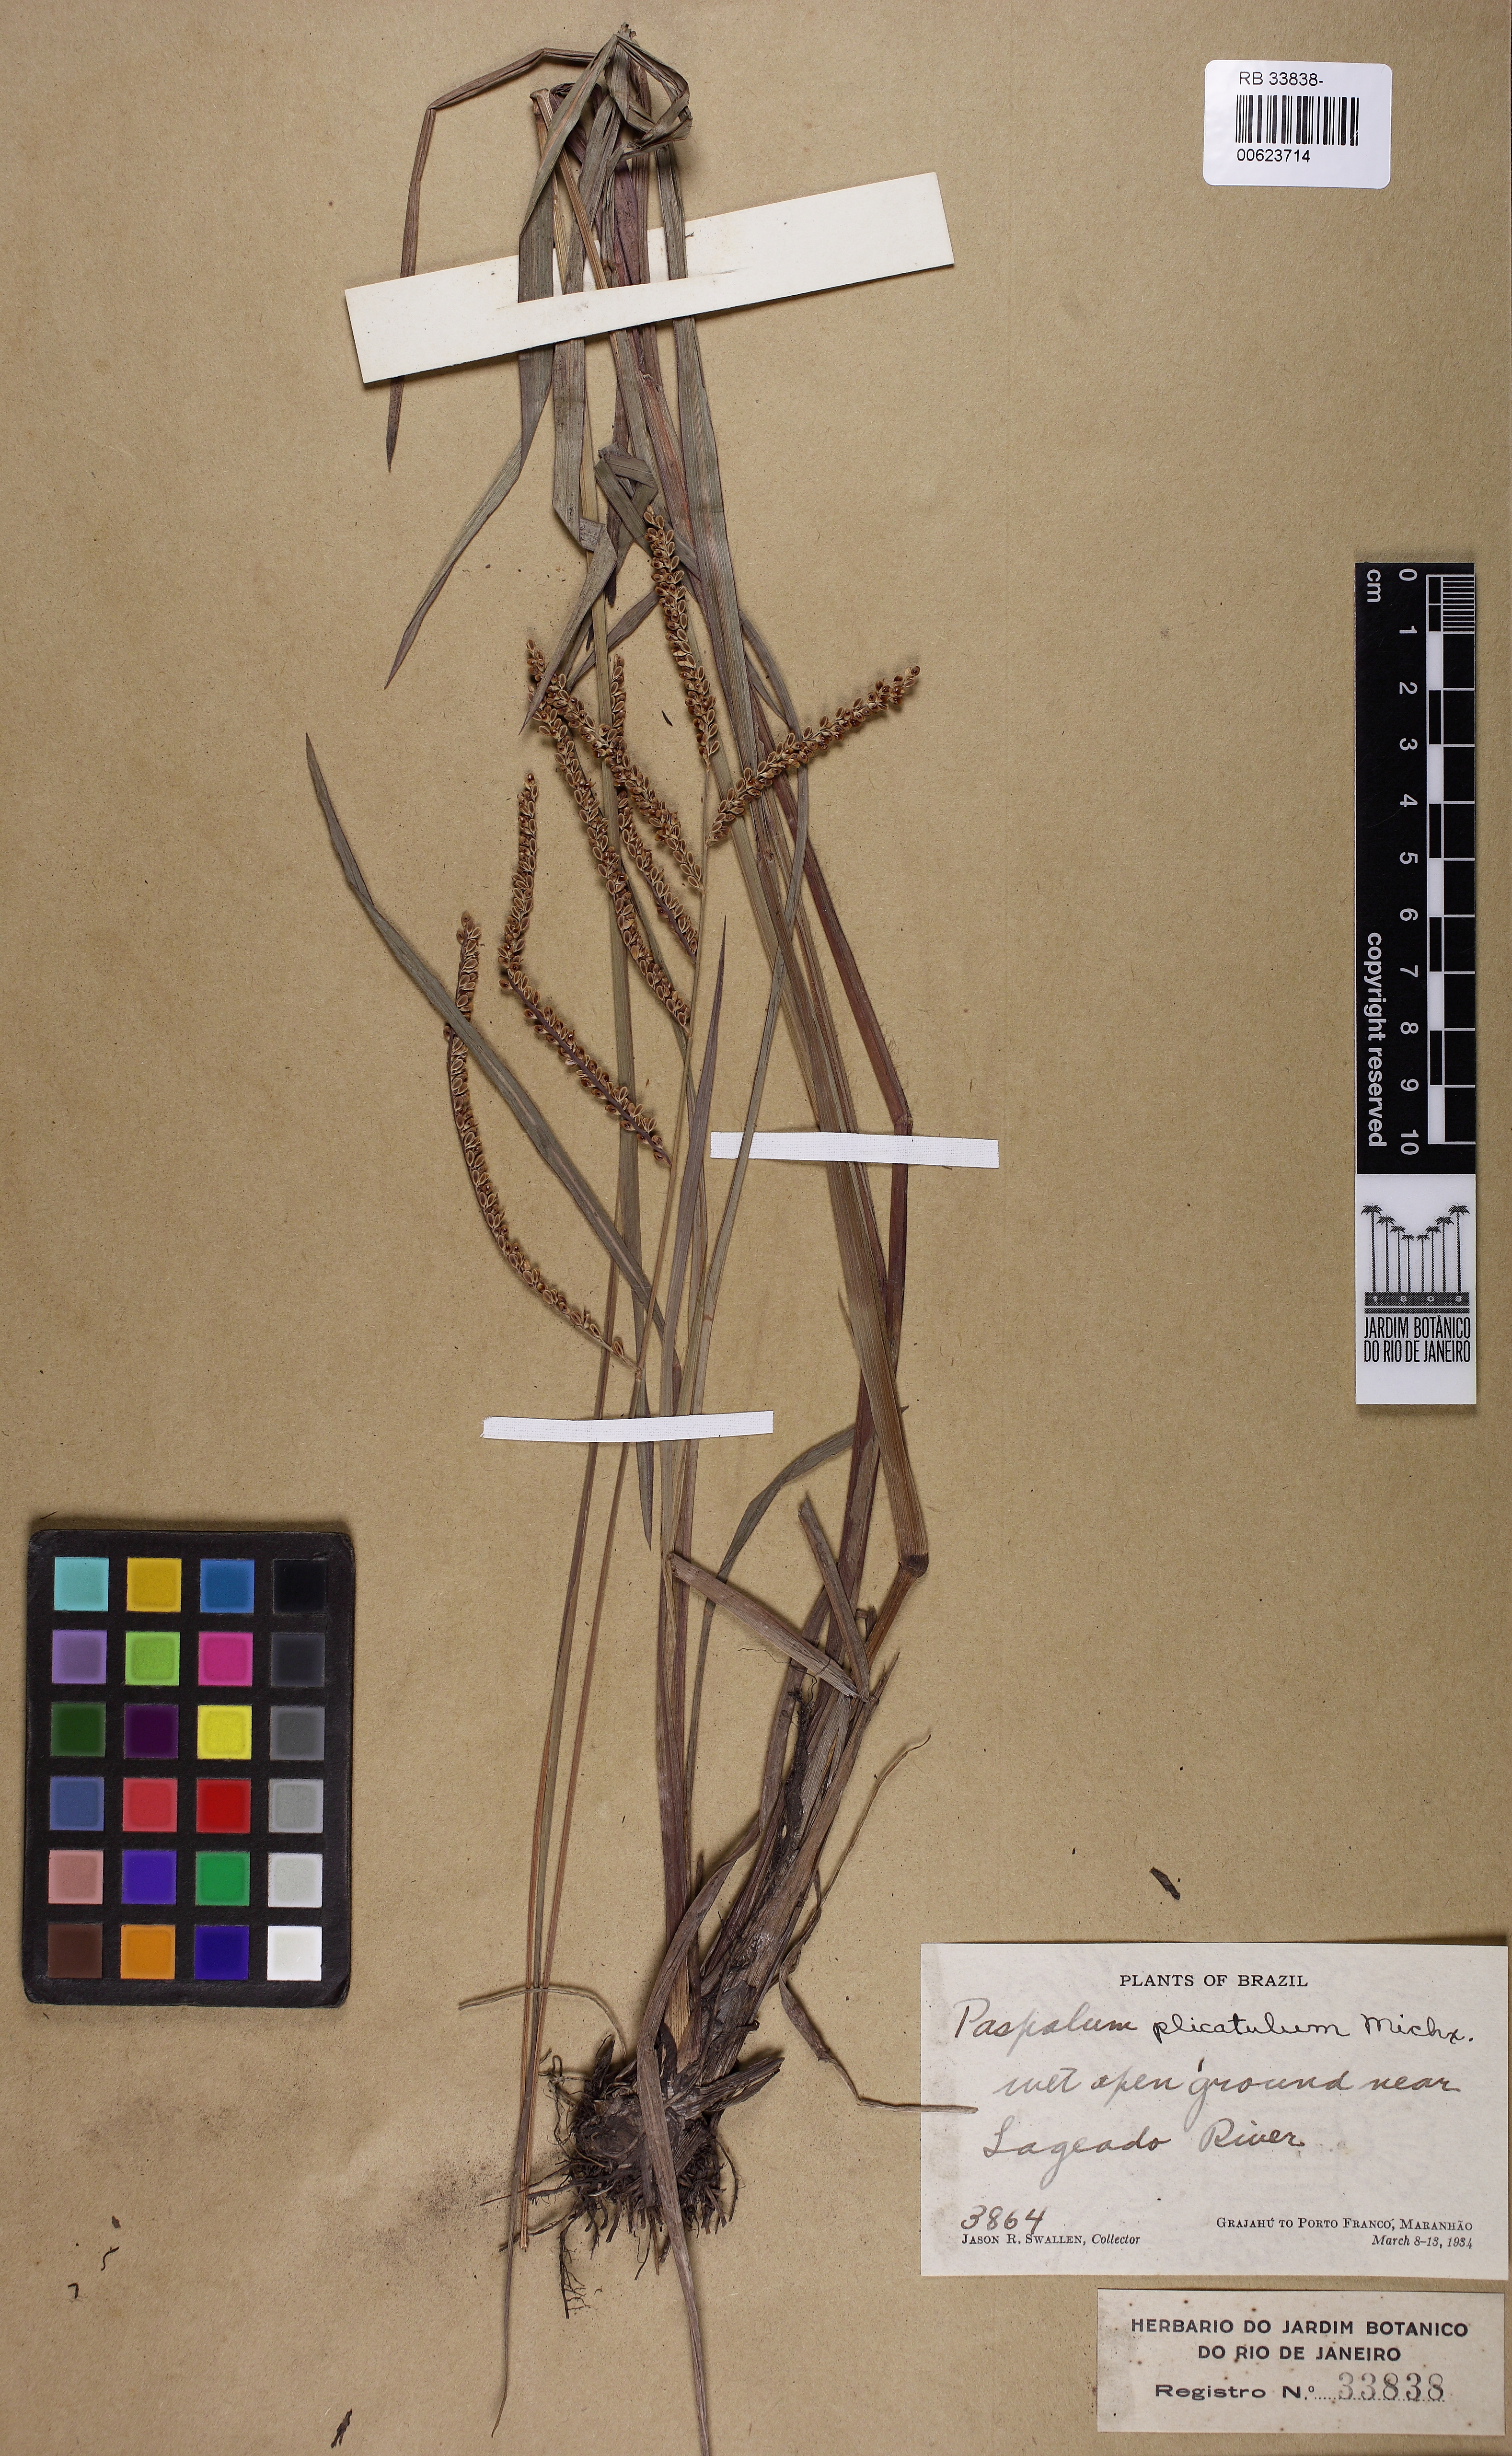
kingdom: Plantae
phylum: Tracheophyta
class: Liliopsida
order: Poales
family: Poaceae
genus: Paspalum
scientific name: Paspalum plicatulum
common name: Top paspalum
